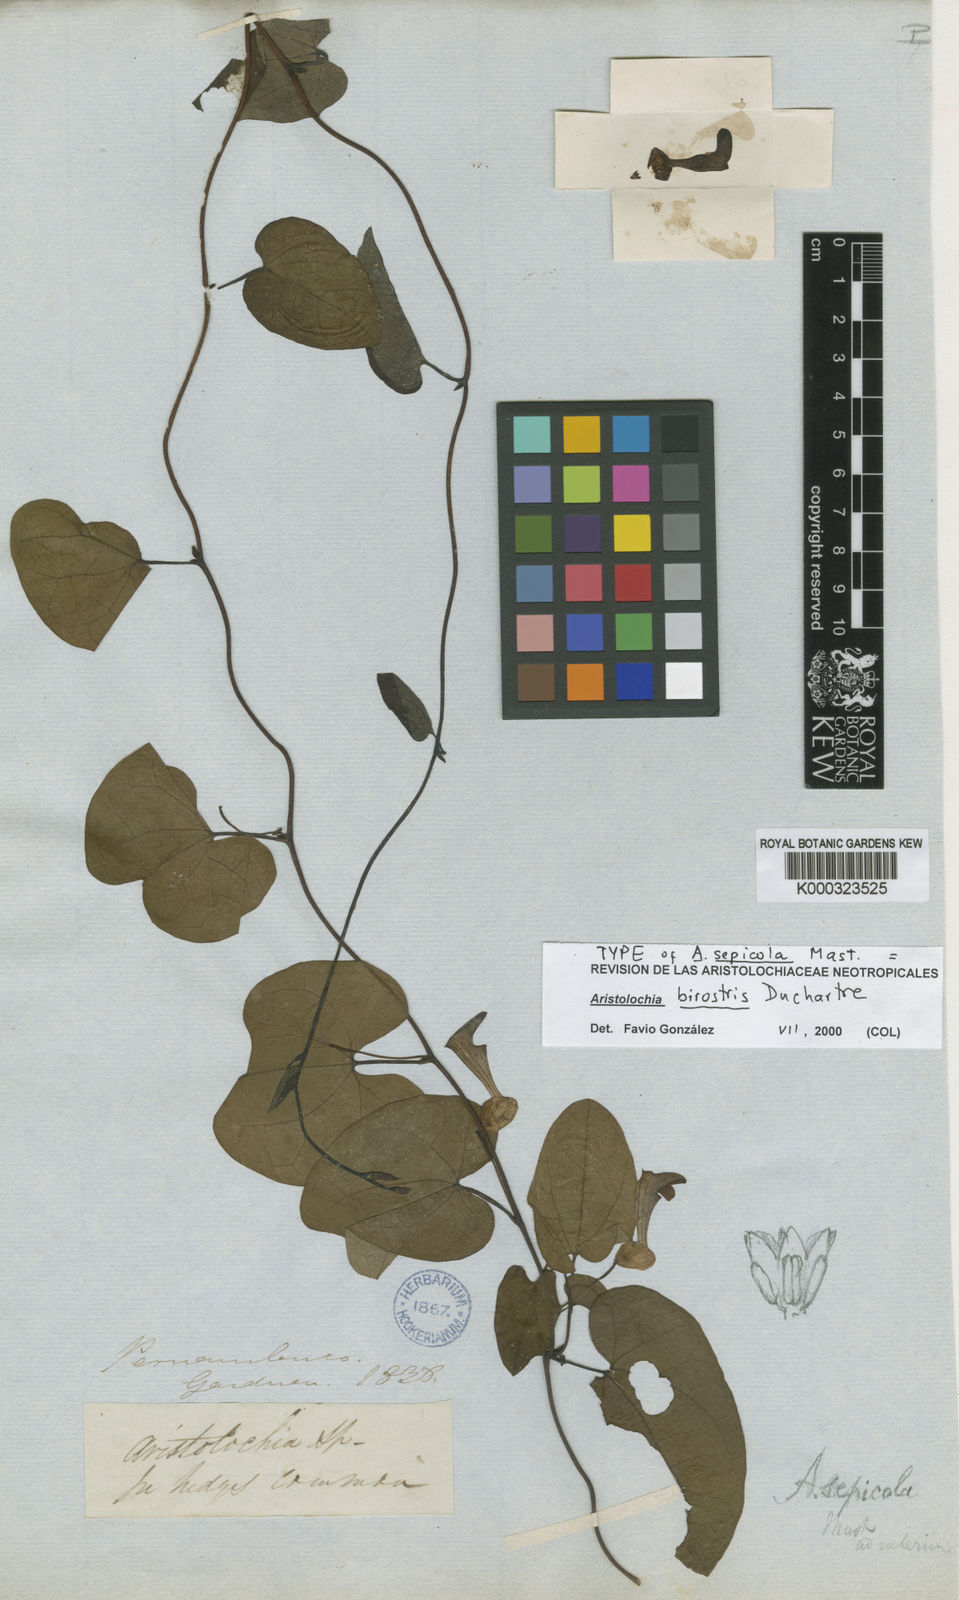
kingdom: Plantae
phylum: Tracheophyta
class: Magnoliopsida
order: Piperales
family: Aristolochiaceae
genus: Aristolochia
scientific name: Aristolochia birostris
